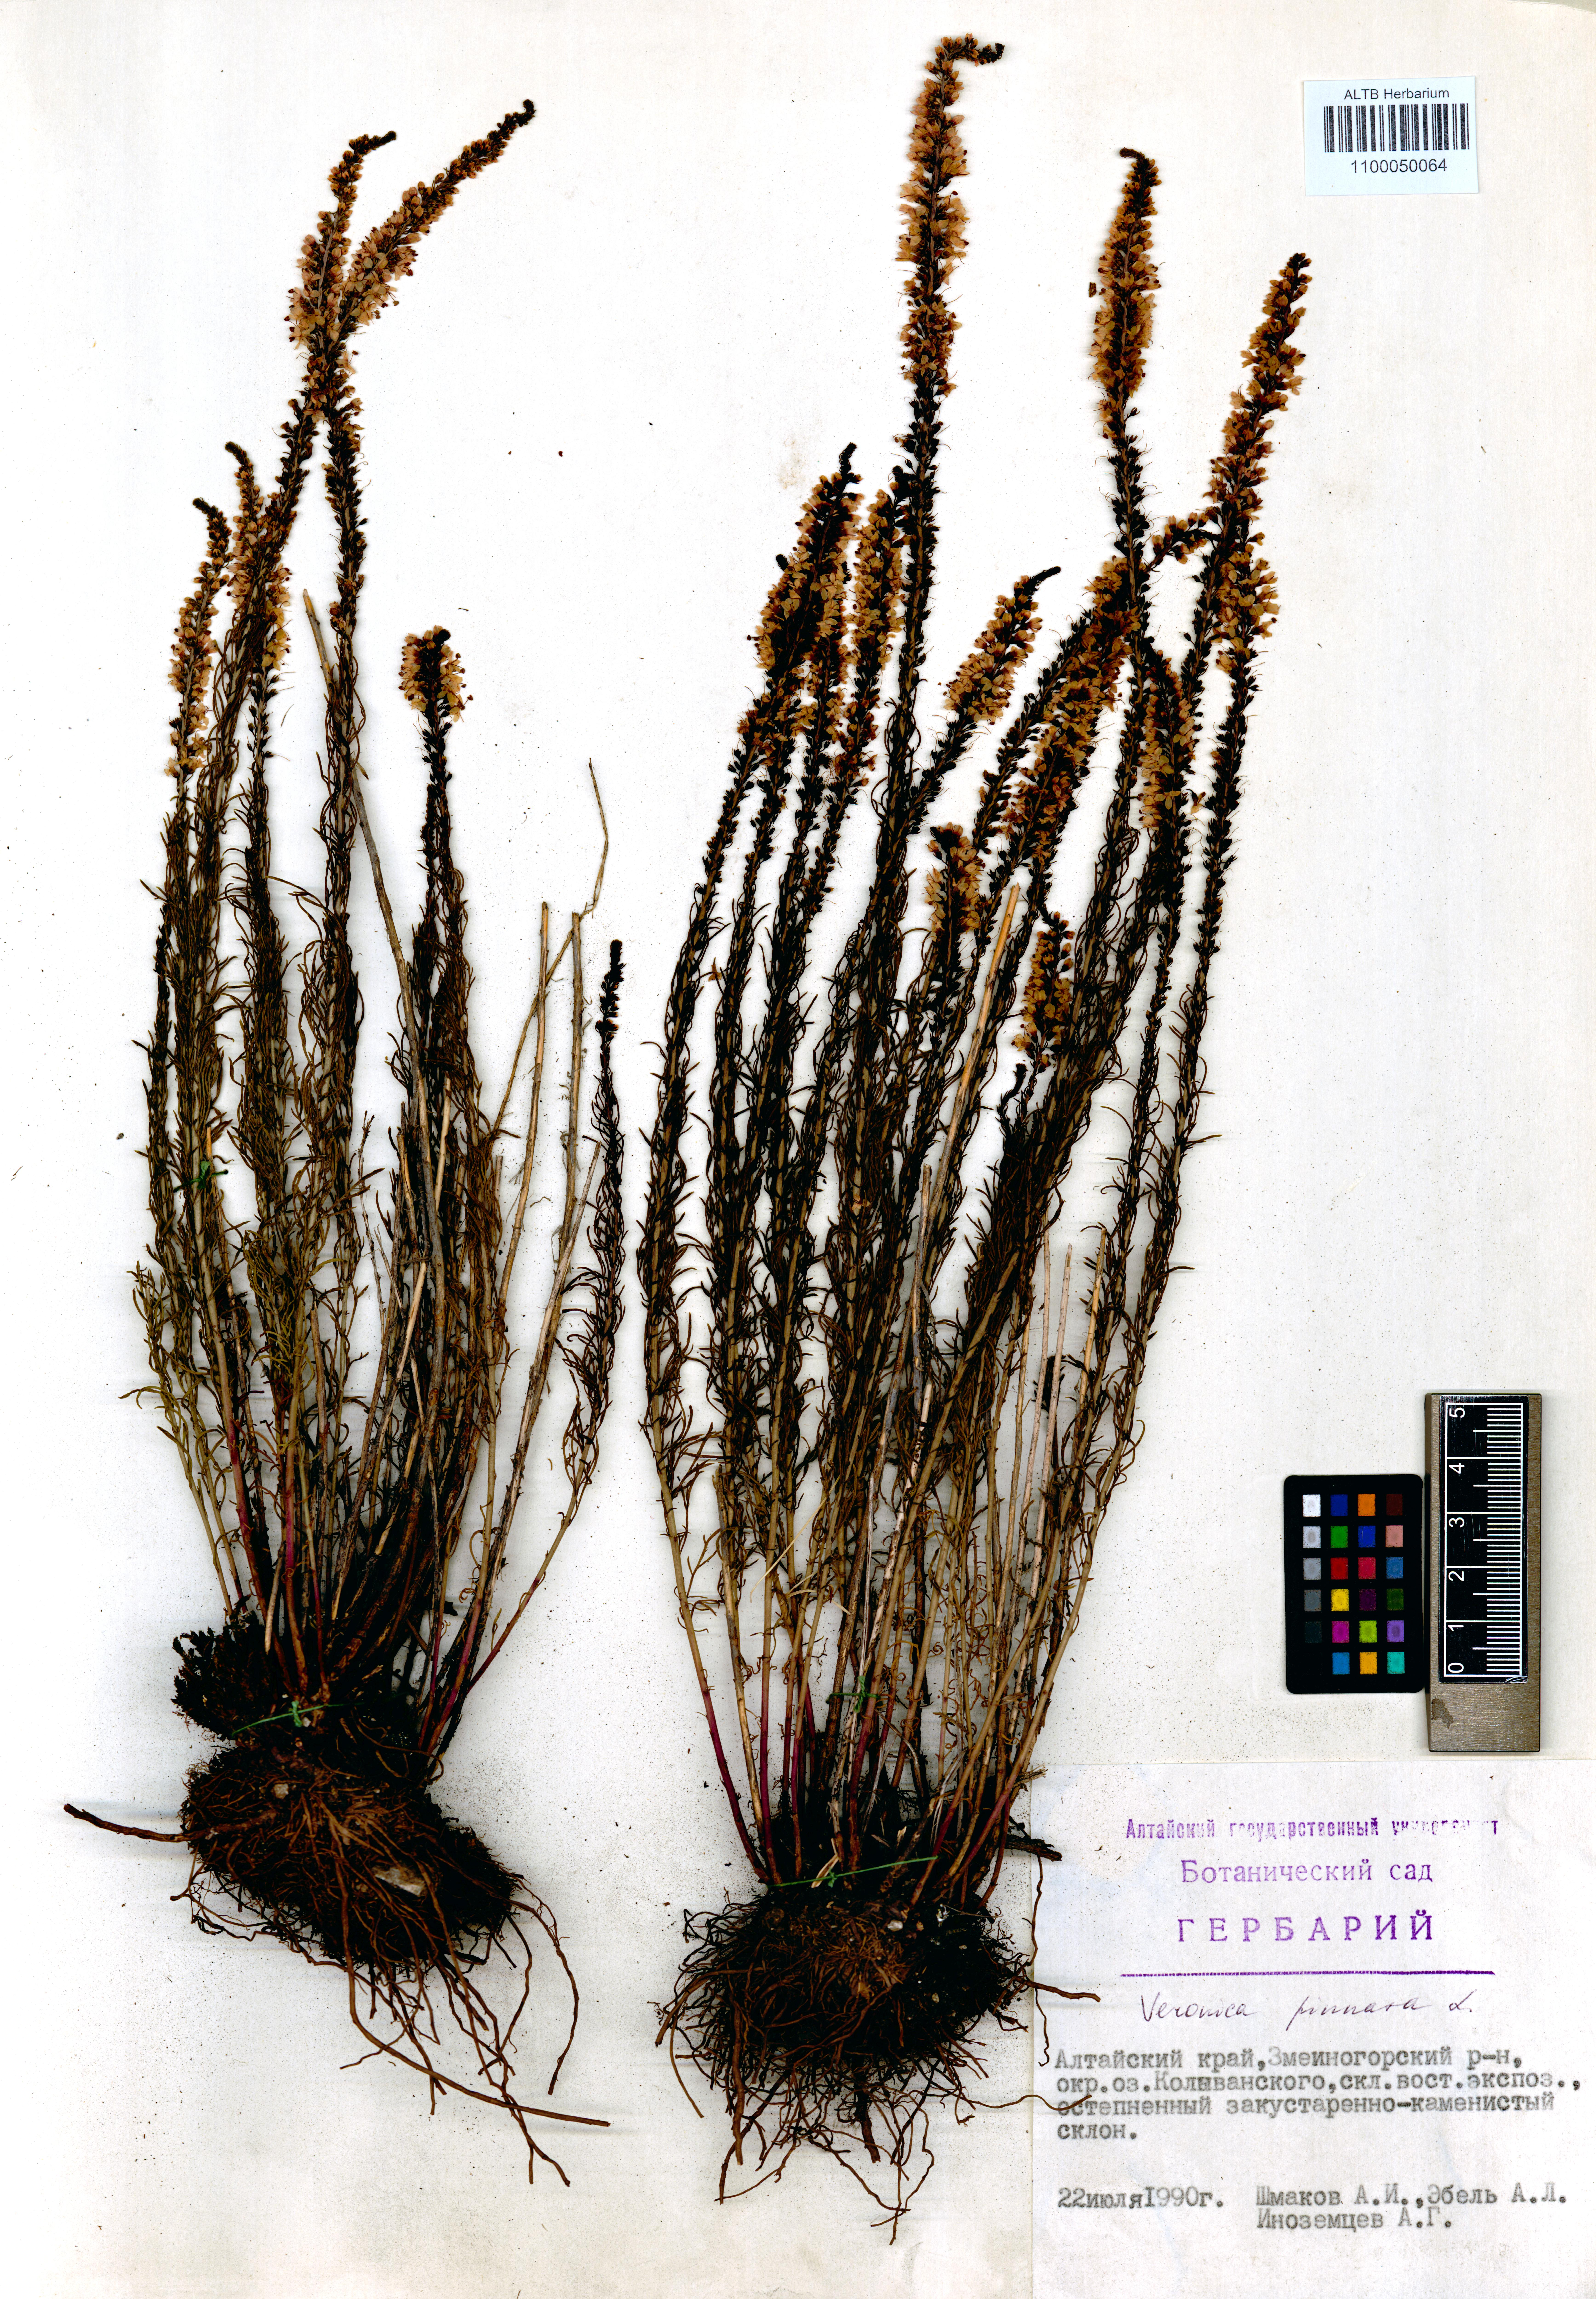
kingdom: Plantae
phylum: Tracheophyta
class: Magnoliopsida
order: Lamiales
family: Plantaginaceae
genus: Veronica
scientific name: Veronica pinnata
